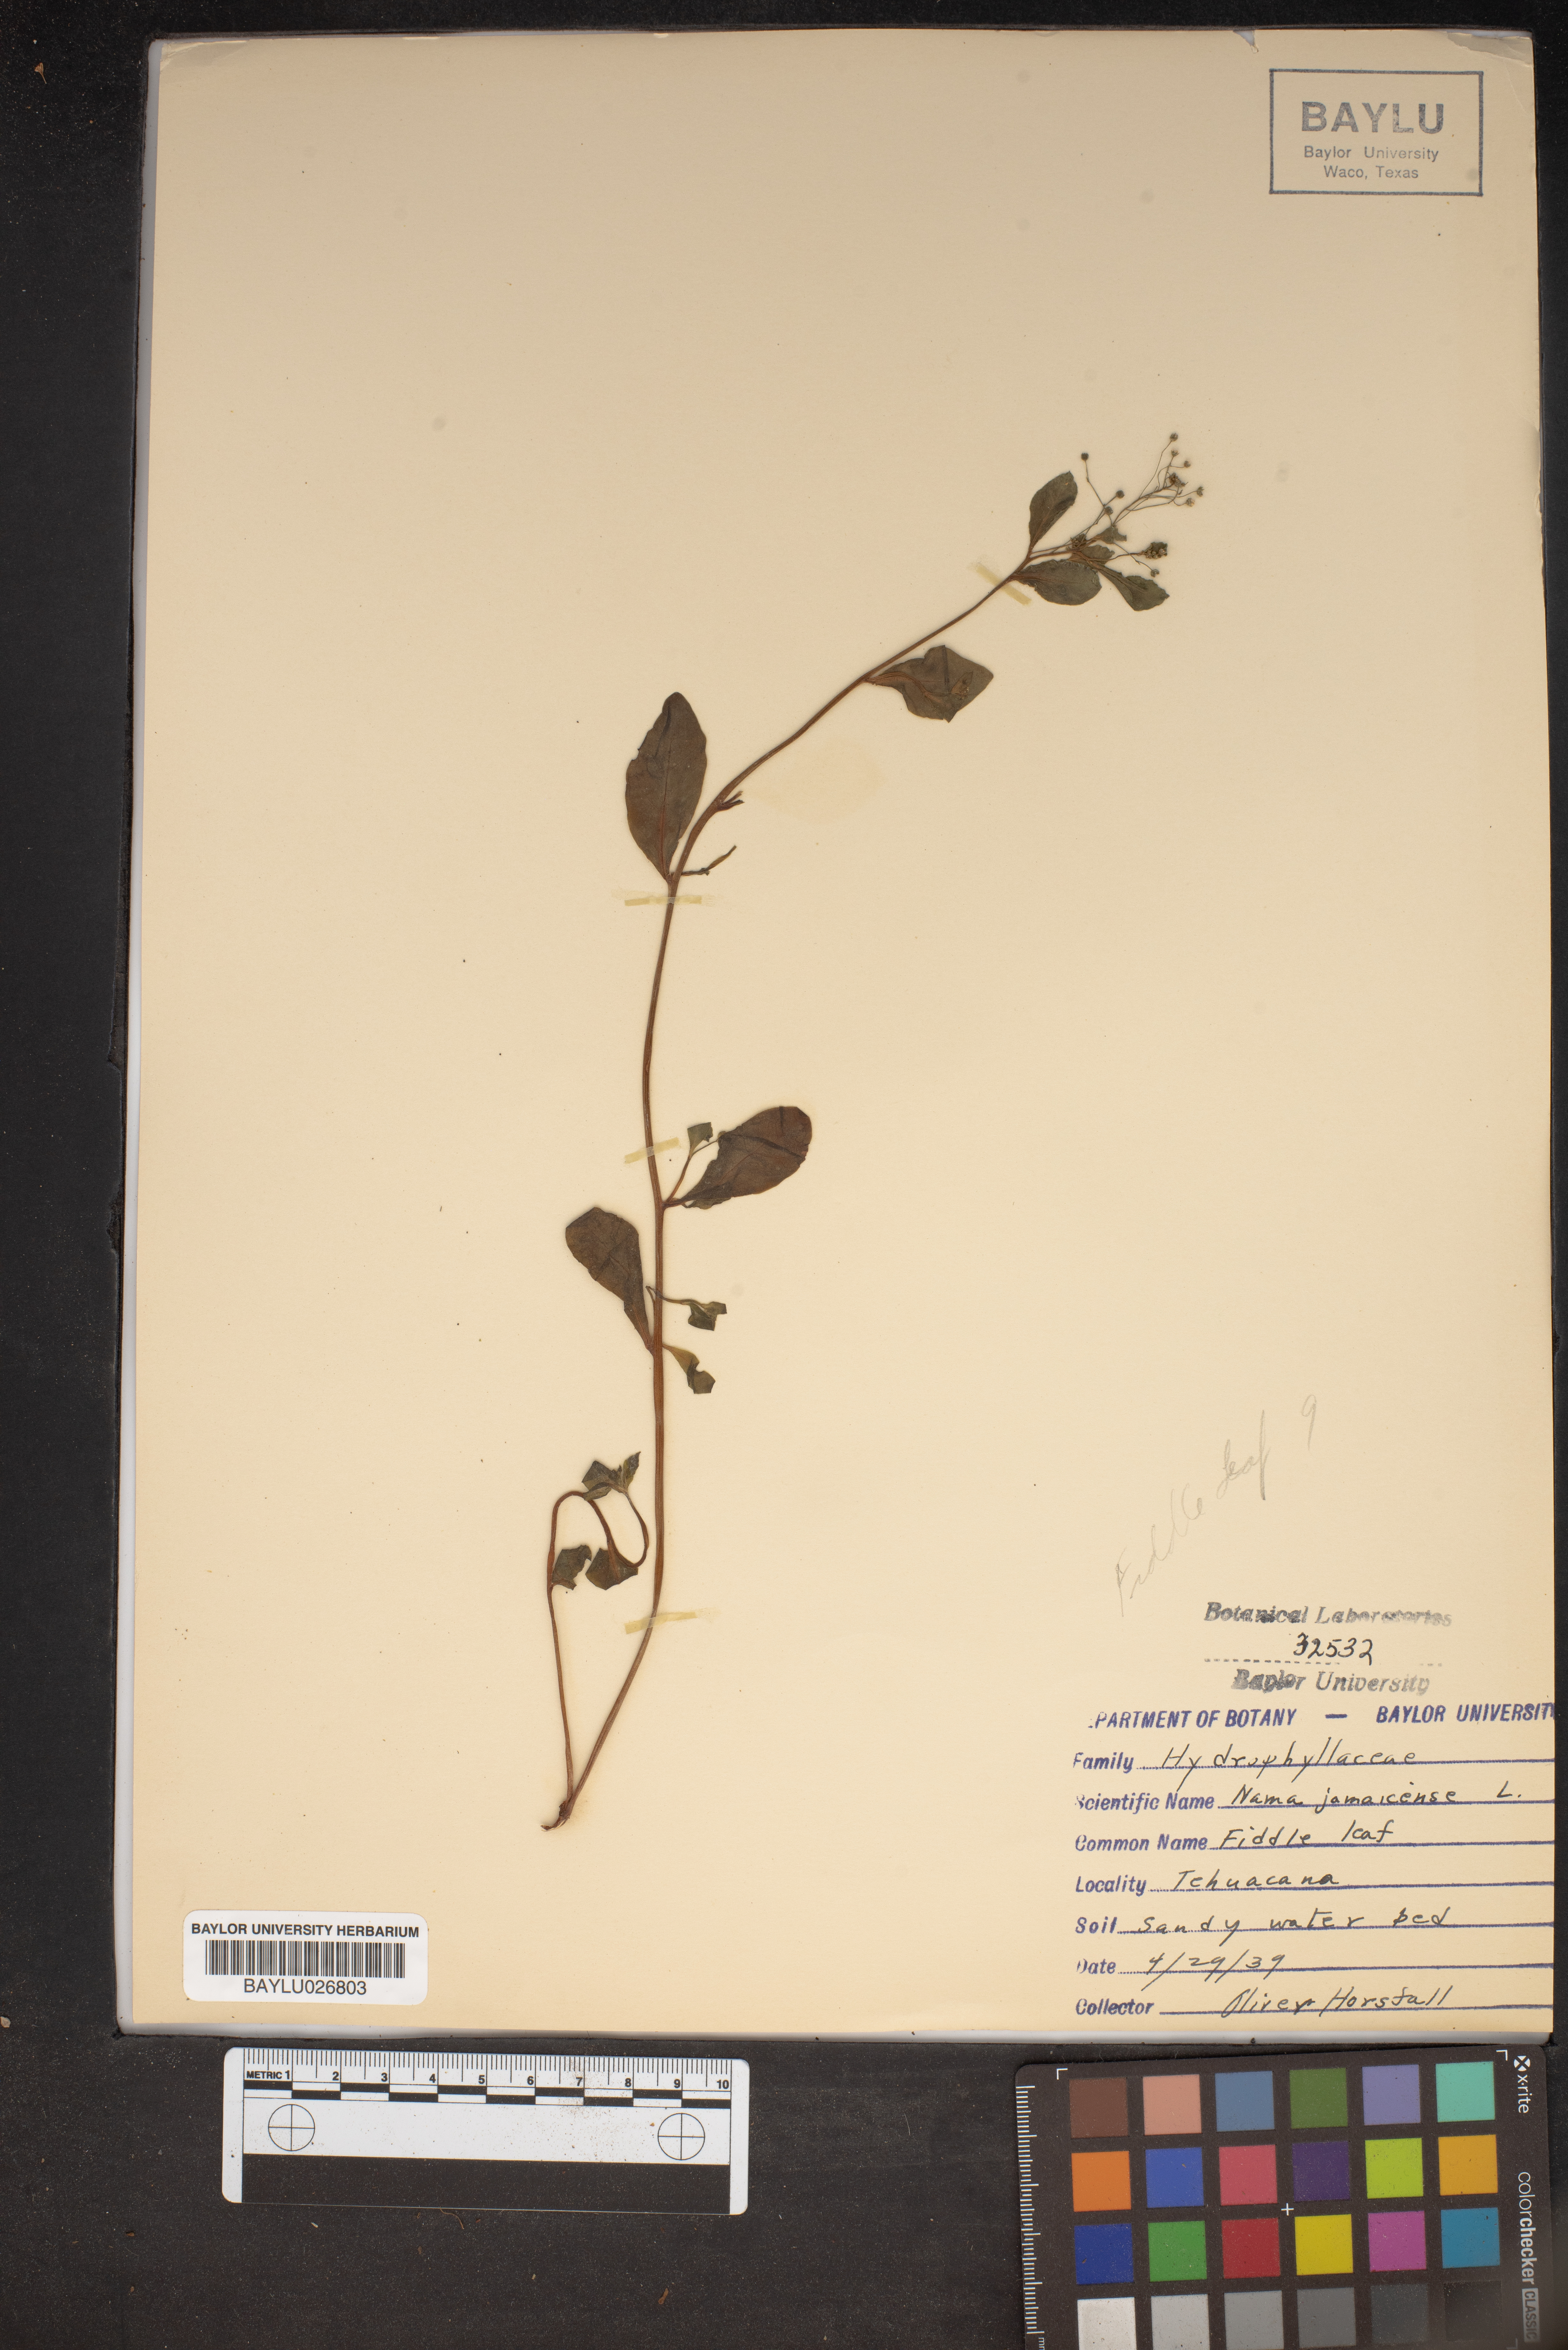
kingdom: Plantae
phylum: Tracheophyta
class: Magnoliopsida
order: Boraginales
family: Namaceae
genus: Nama
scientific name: Nama jamaicense
